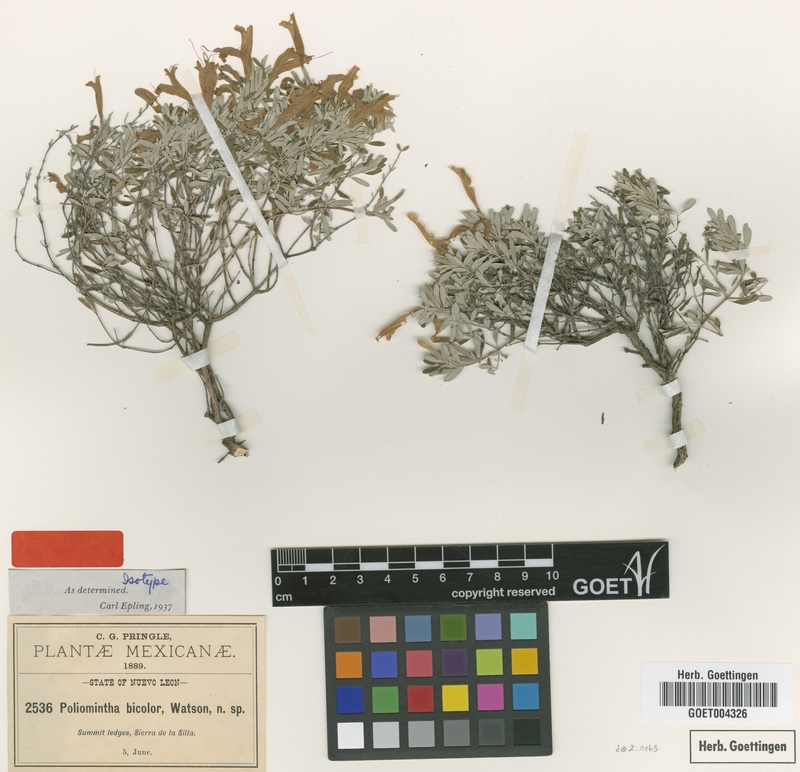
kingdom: Plantae
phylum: Tracheophyta
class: Magnoliopsida
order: Lamiales
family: Lamiaceae
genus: Poliomintha
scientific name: Poliomintha longiflora
